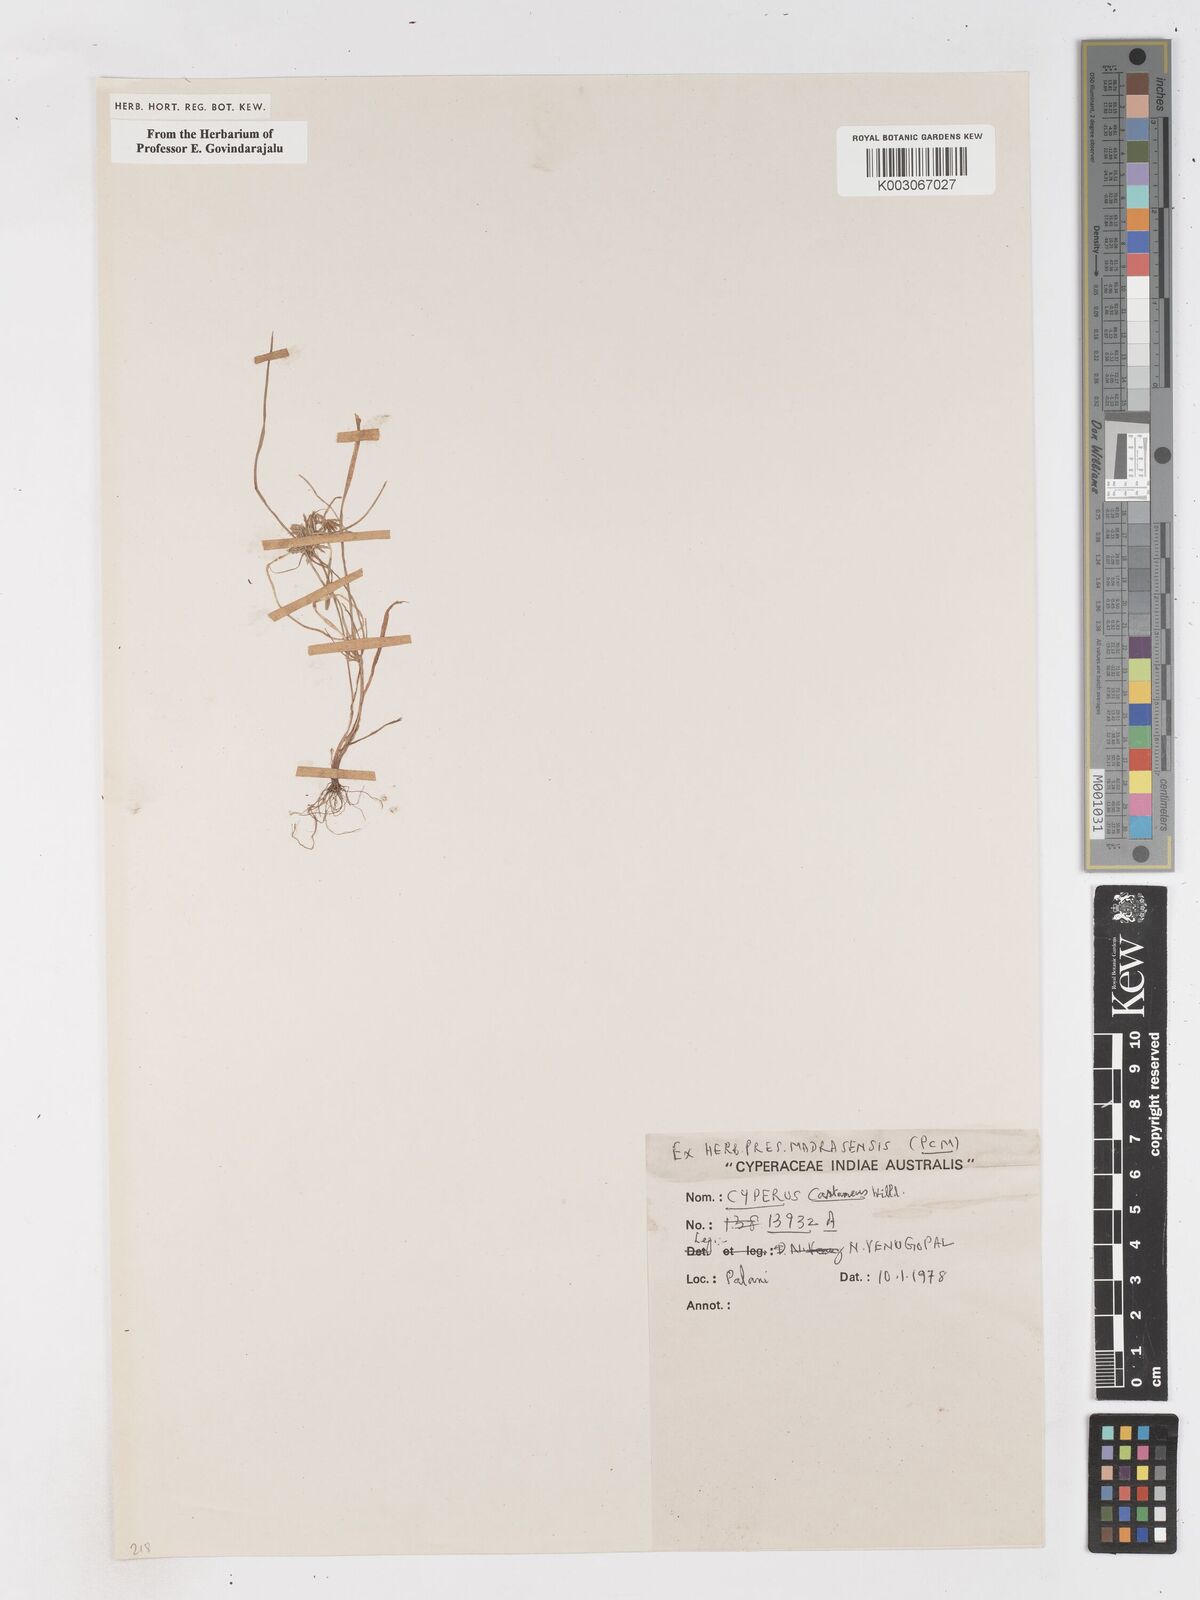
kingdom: Plantae
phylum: Tracheophyta
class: Liliopsida
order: Poales
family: Cyperaceae
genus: Cyperus
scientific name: Cyperus castaneus
